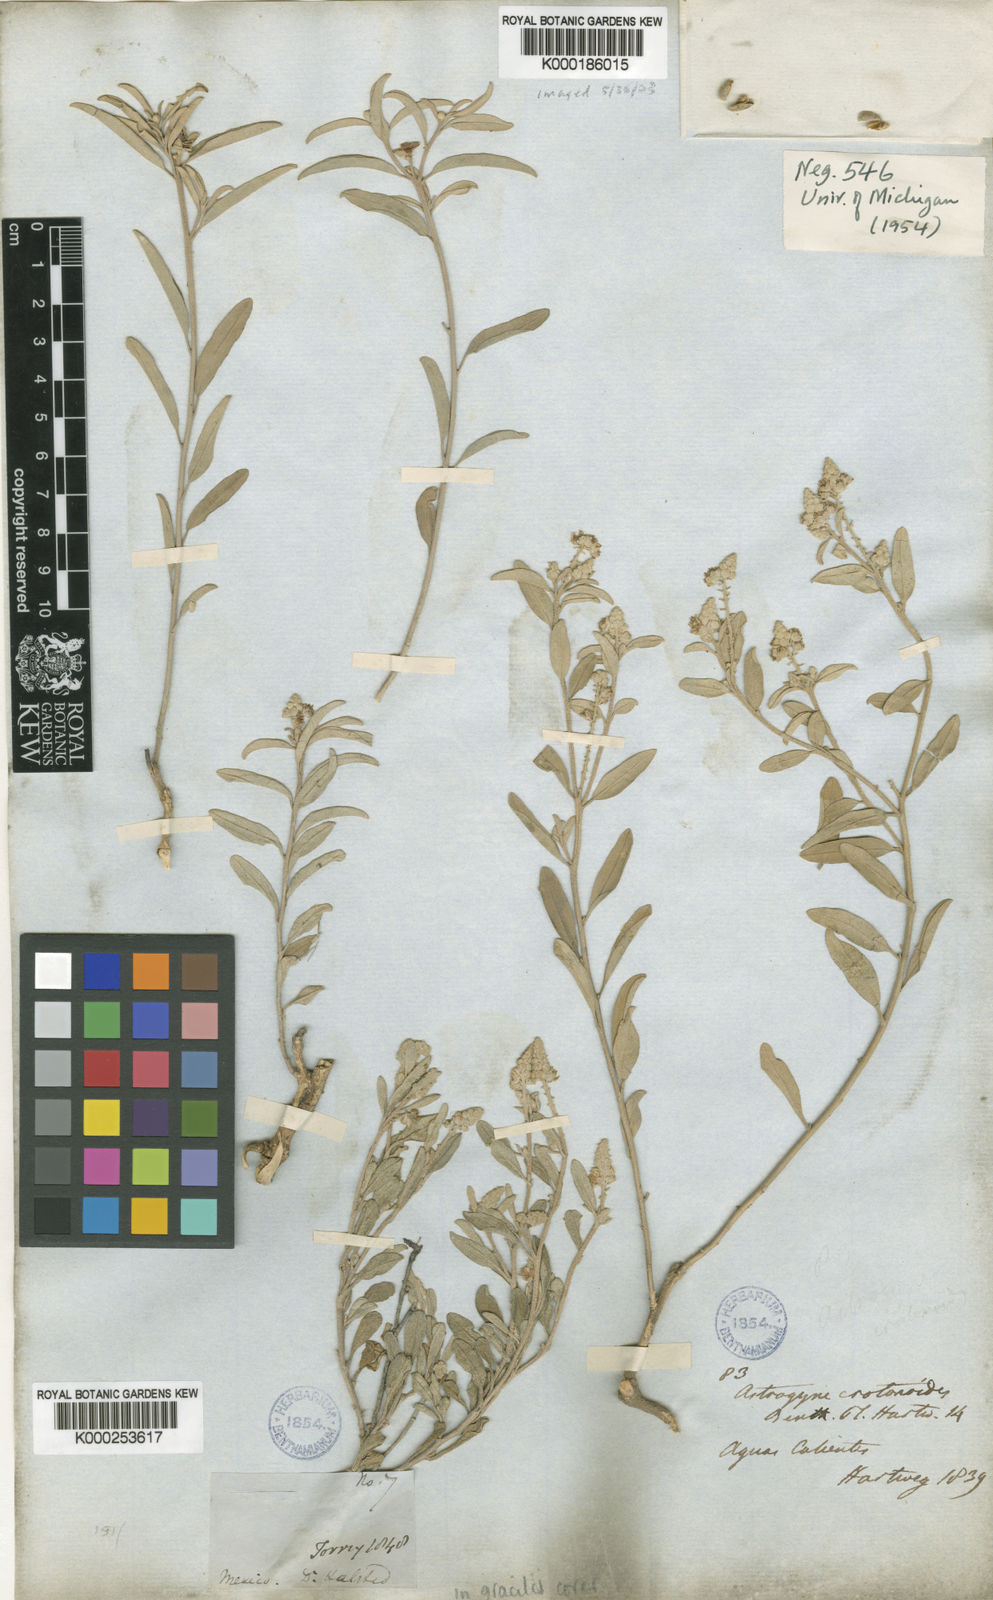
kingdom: Plantae
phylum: Tracheophyta
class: Magnoliopsida
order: Malpighiales
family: Euphorbiaceae
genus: Croton
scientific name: Croton dioicus
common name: Grassland croton
